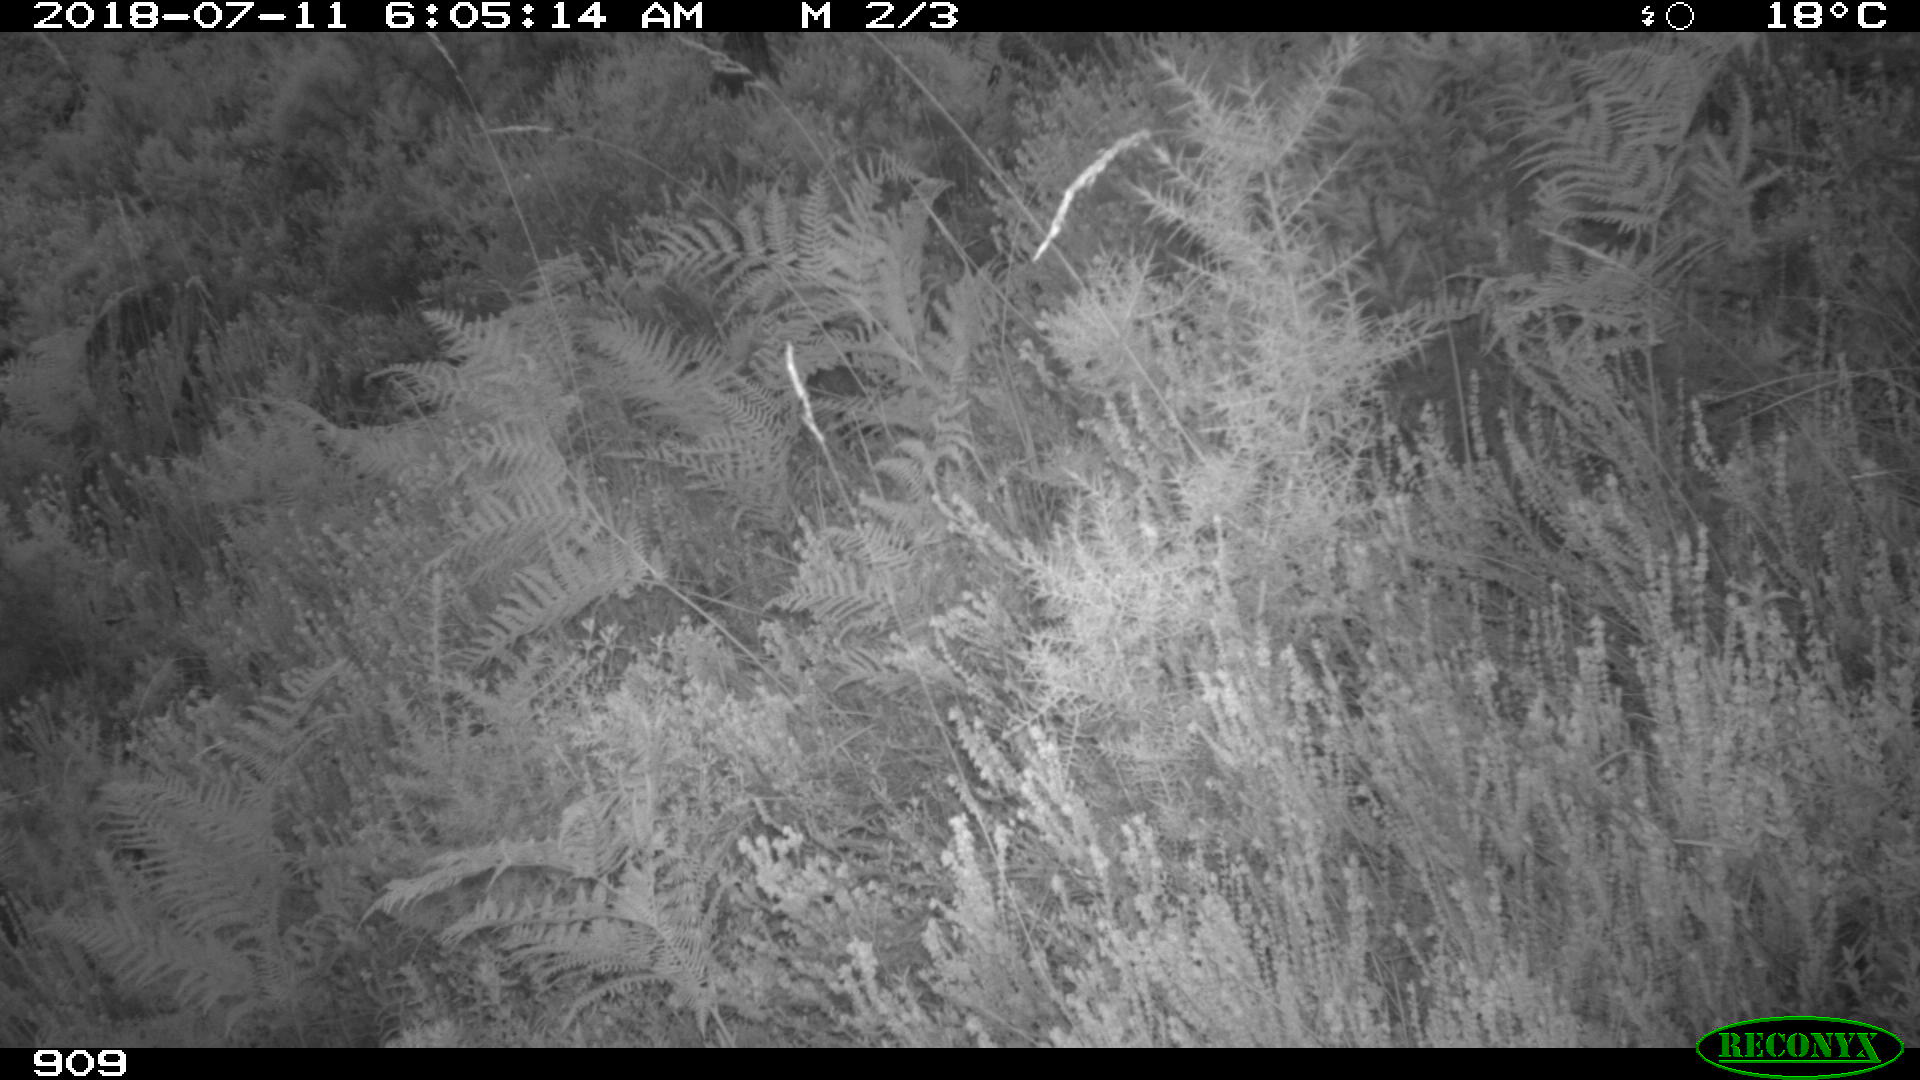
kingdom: Animalia
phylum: Chordata
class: Mammalia
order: Artiodactyla
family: Cervidae
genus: Capreolus
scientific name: Capreolus capreolus
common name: Western roe deer
